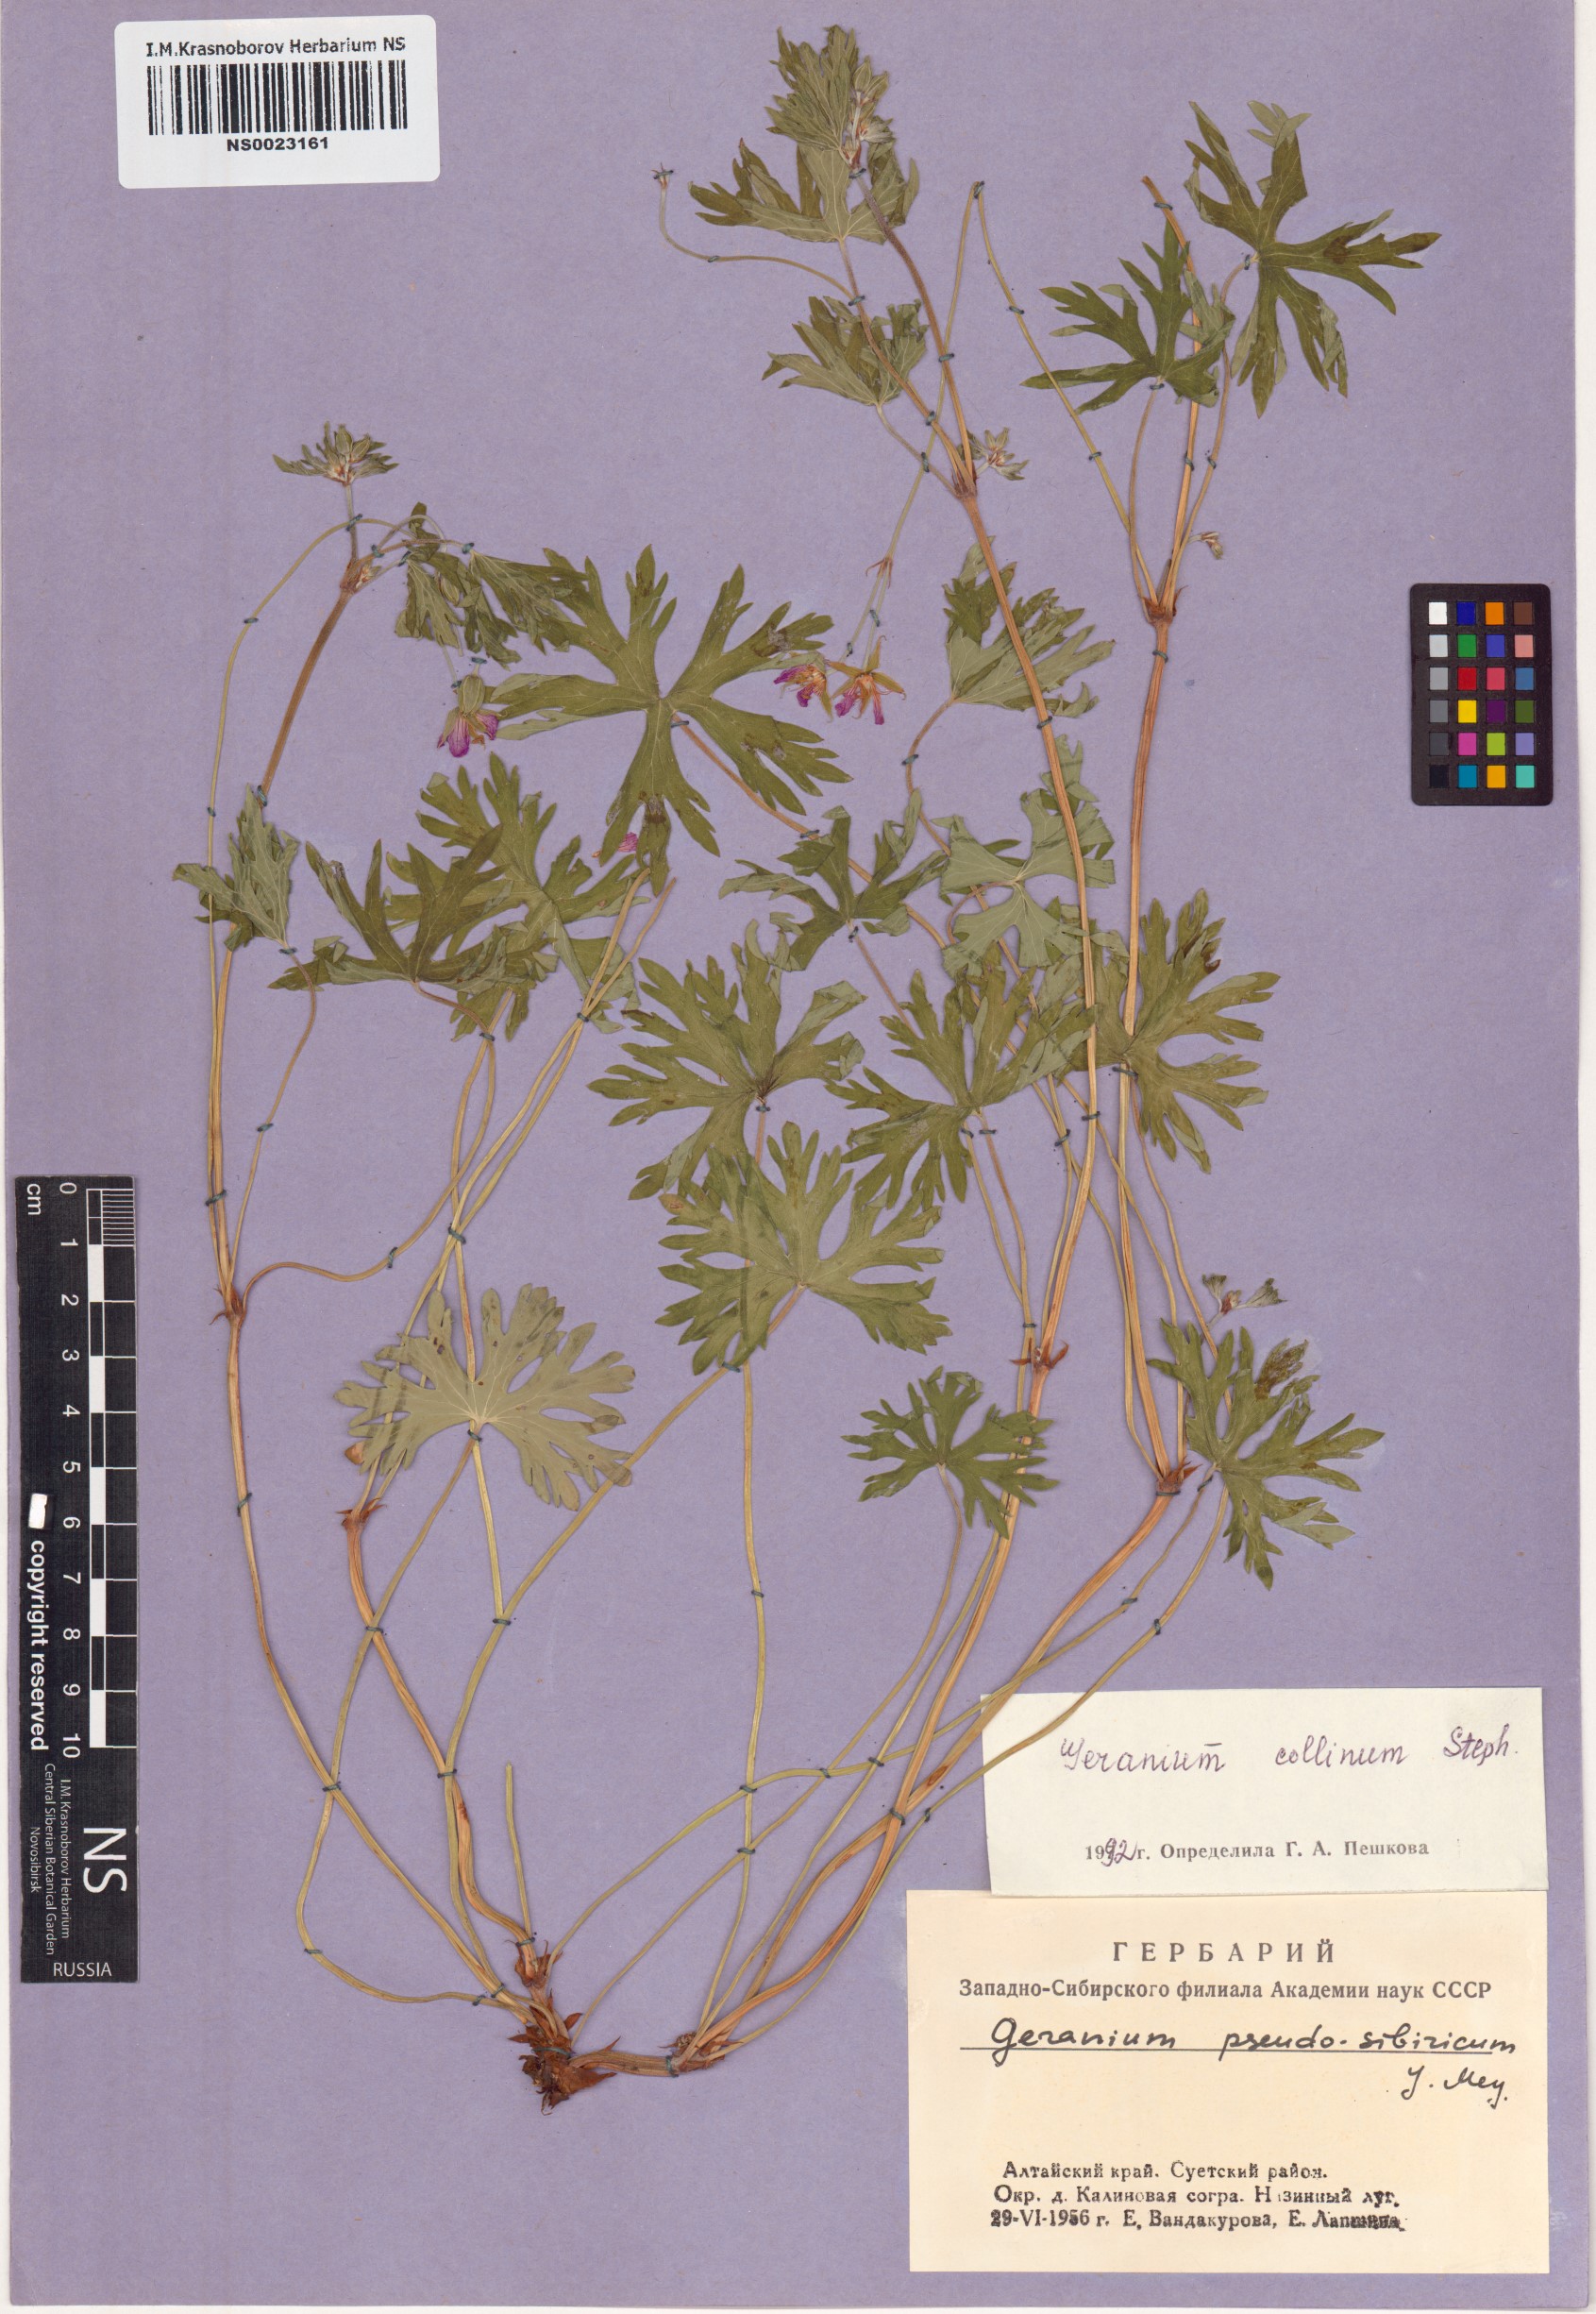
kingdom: Plantae
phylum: Tracheophyta
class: Magnoliopsida
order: Geraniales
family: Geraniaceae
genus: Geranium
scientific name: Geranium collinum
